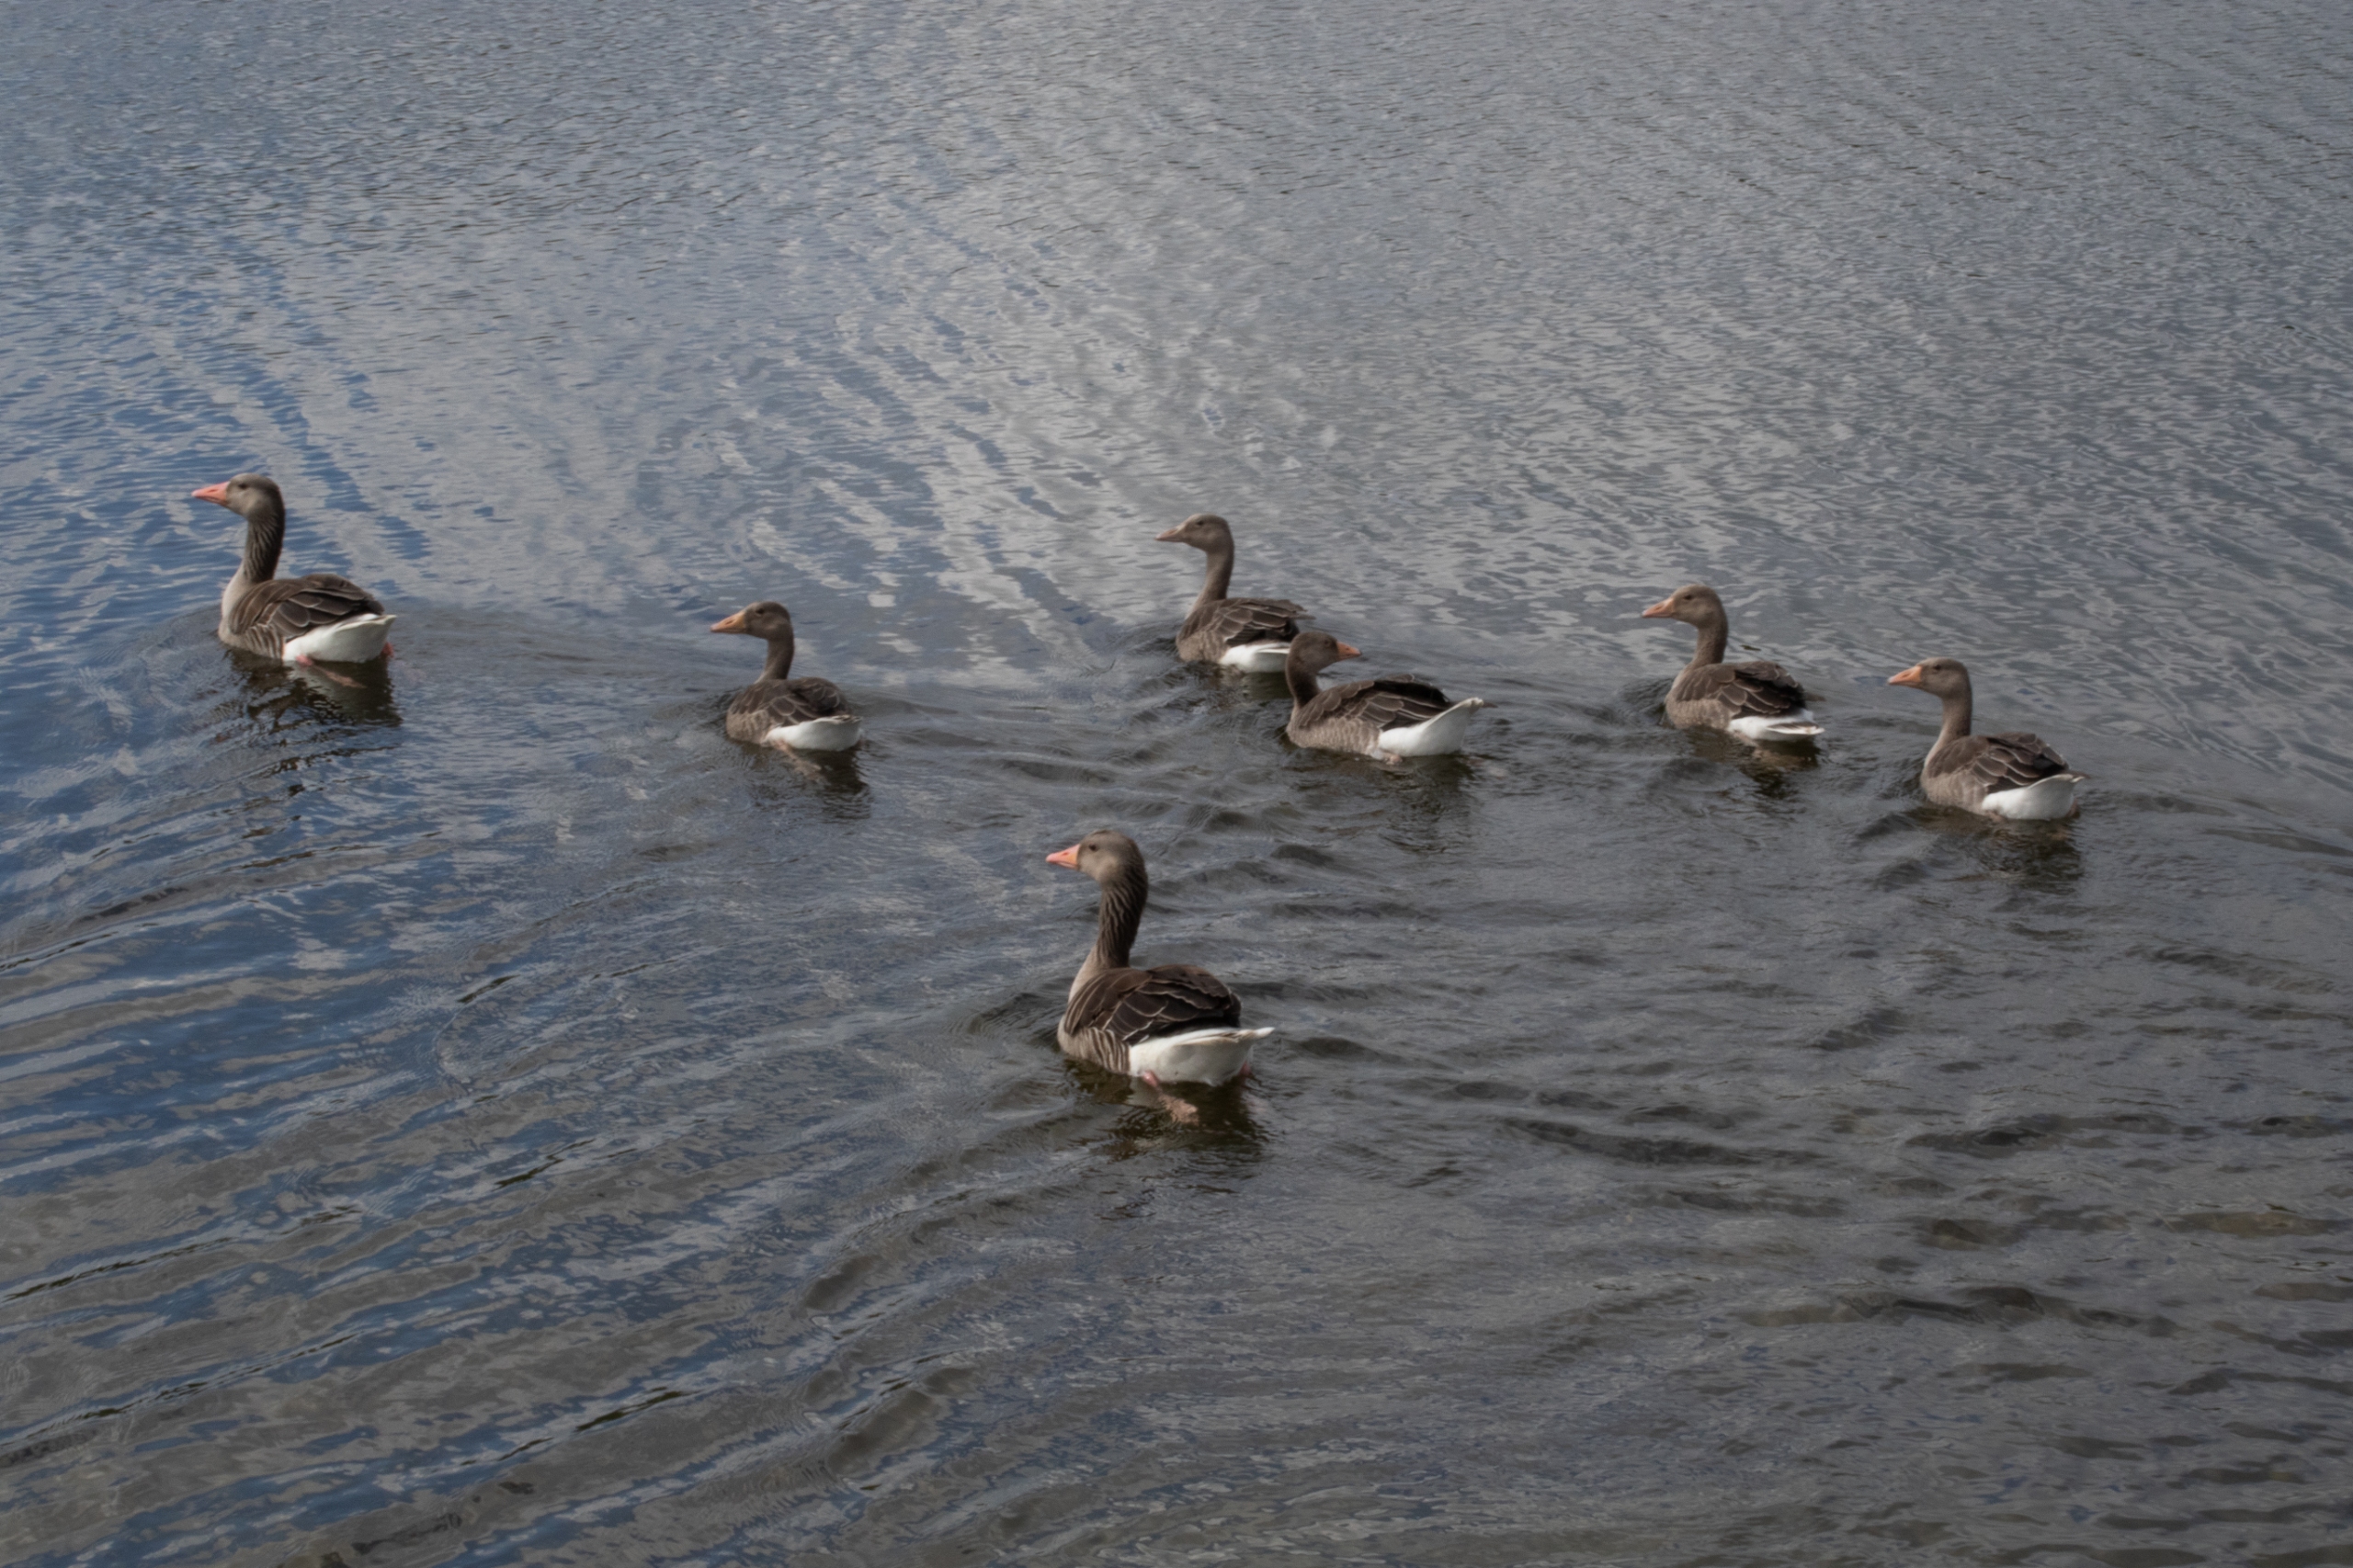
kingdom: Animalia
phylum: Chordata
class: Aves
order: Anseriformes
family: Anatidae
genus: Anser
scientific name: Anser anser
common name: Grågås
